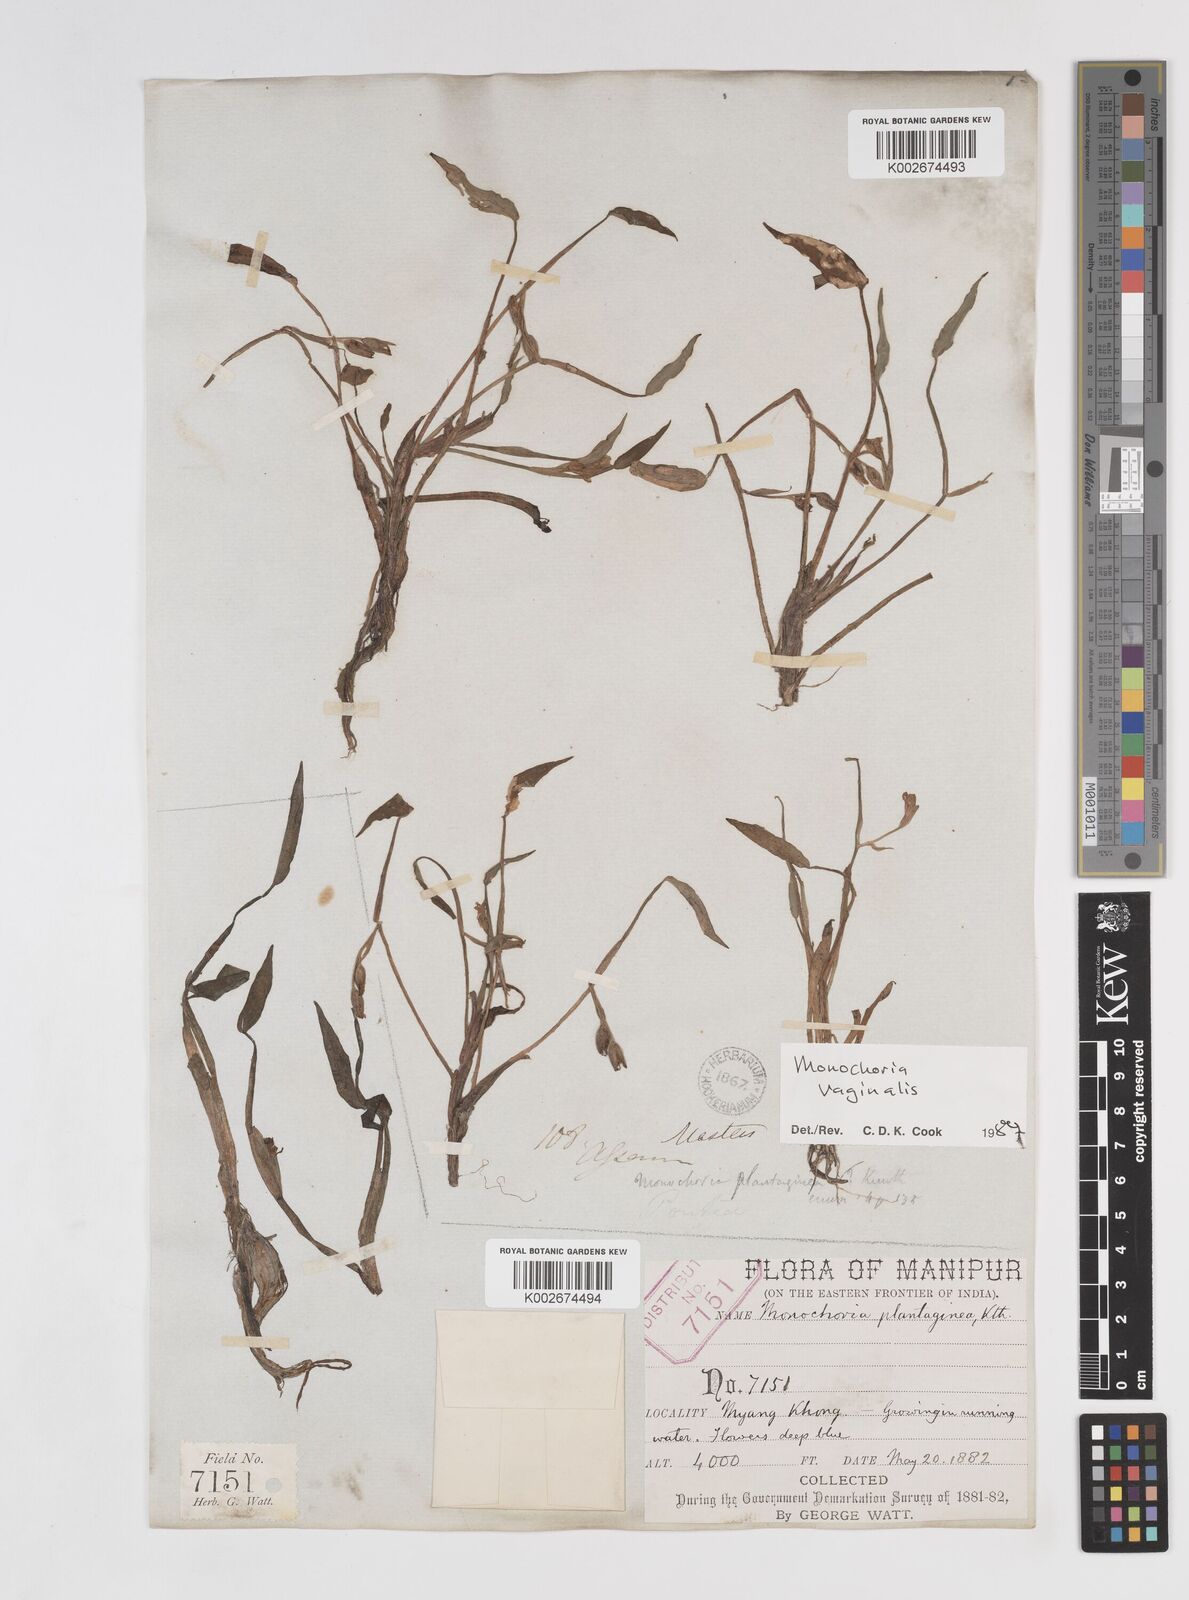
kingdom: Plantae
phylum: Tracheophyta
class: Liliopsida
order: Commelinales
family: Pontederiaceae
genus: Pontederia
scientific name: Pontederia vaginalis
